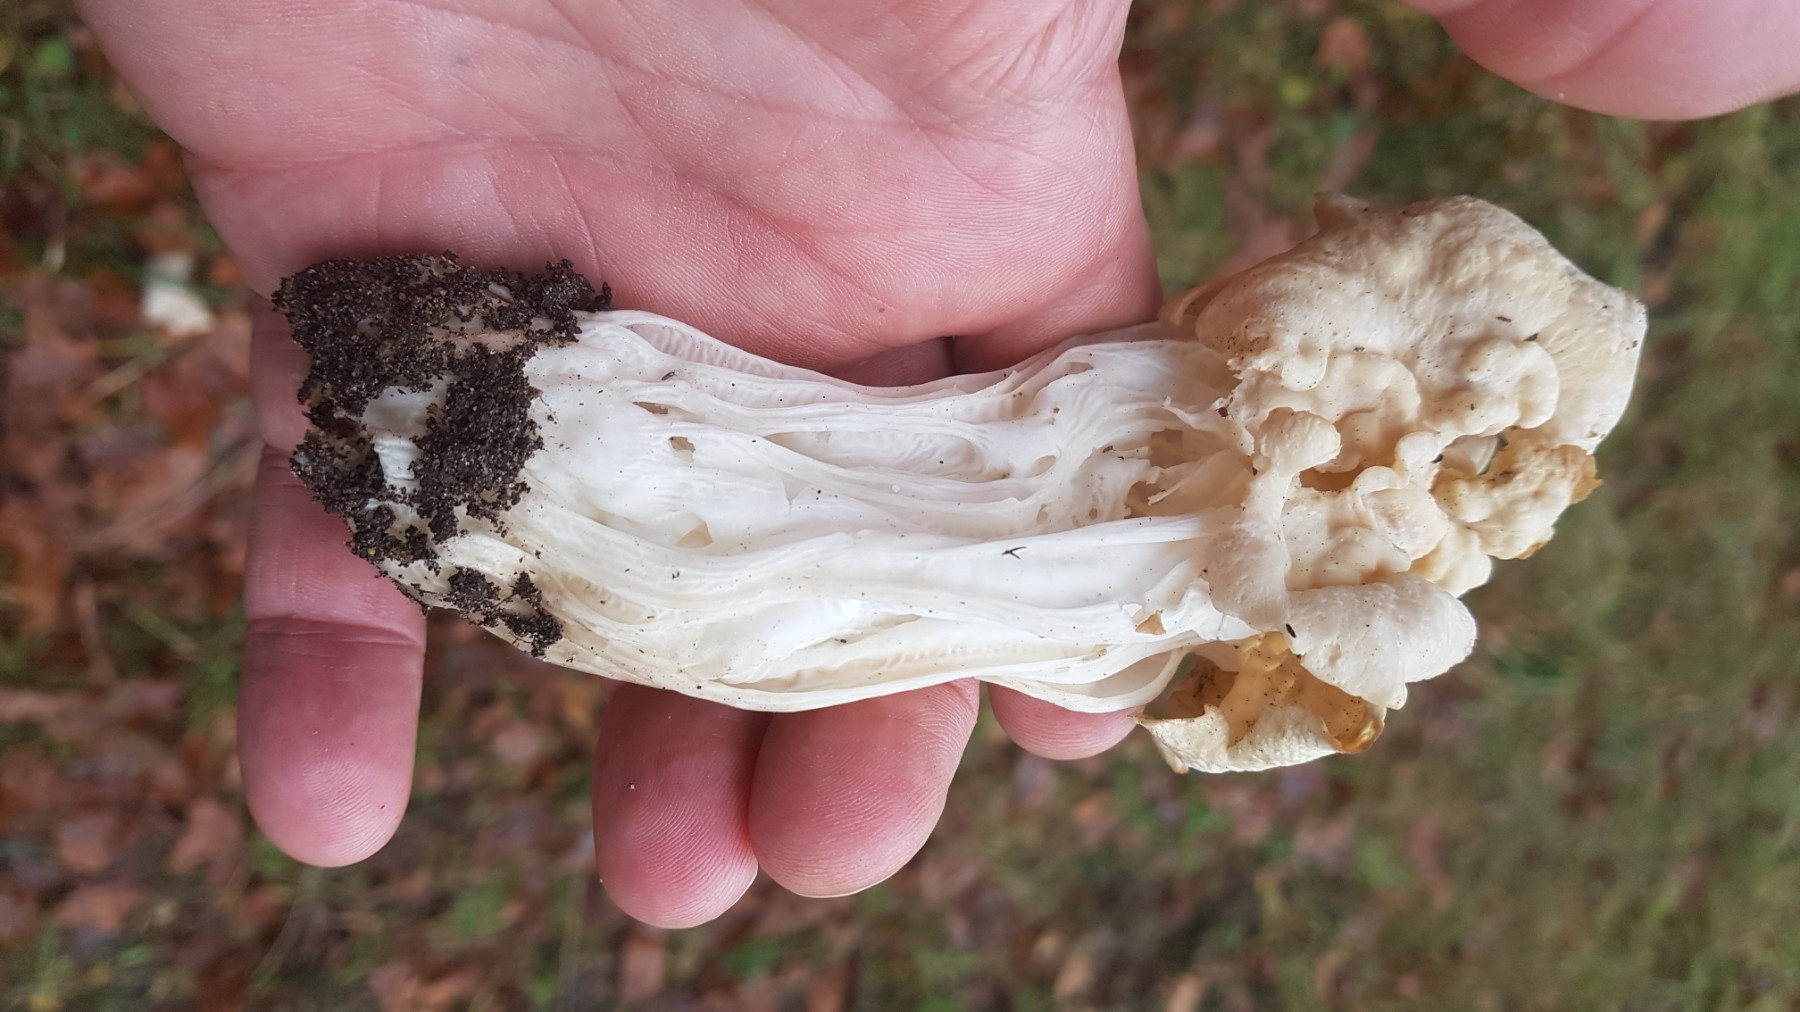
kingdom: Fungi
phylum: Ascomycota
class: Pezizomycetes
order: Pezizales
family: Helvellaceae
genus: Helvella
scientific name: Helvella crispa
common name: kruset foldhat
